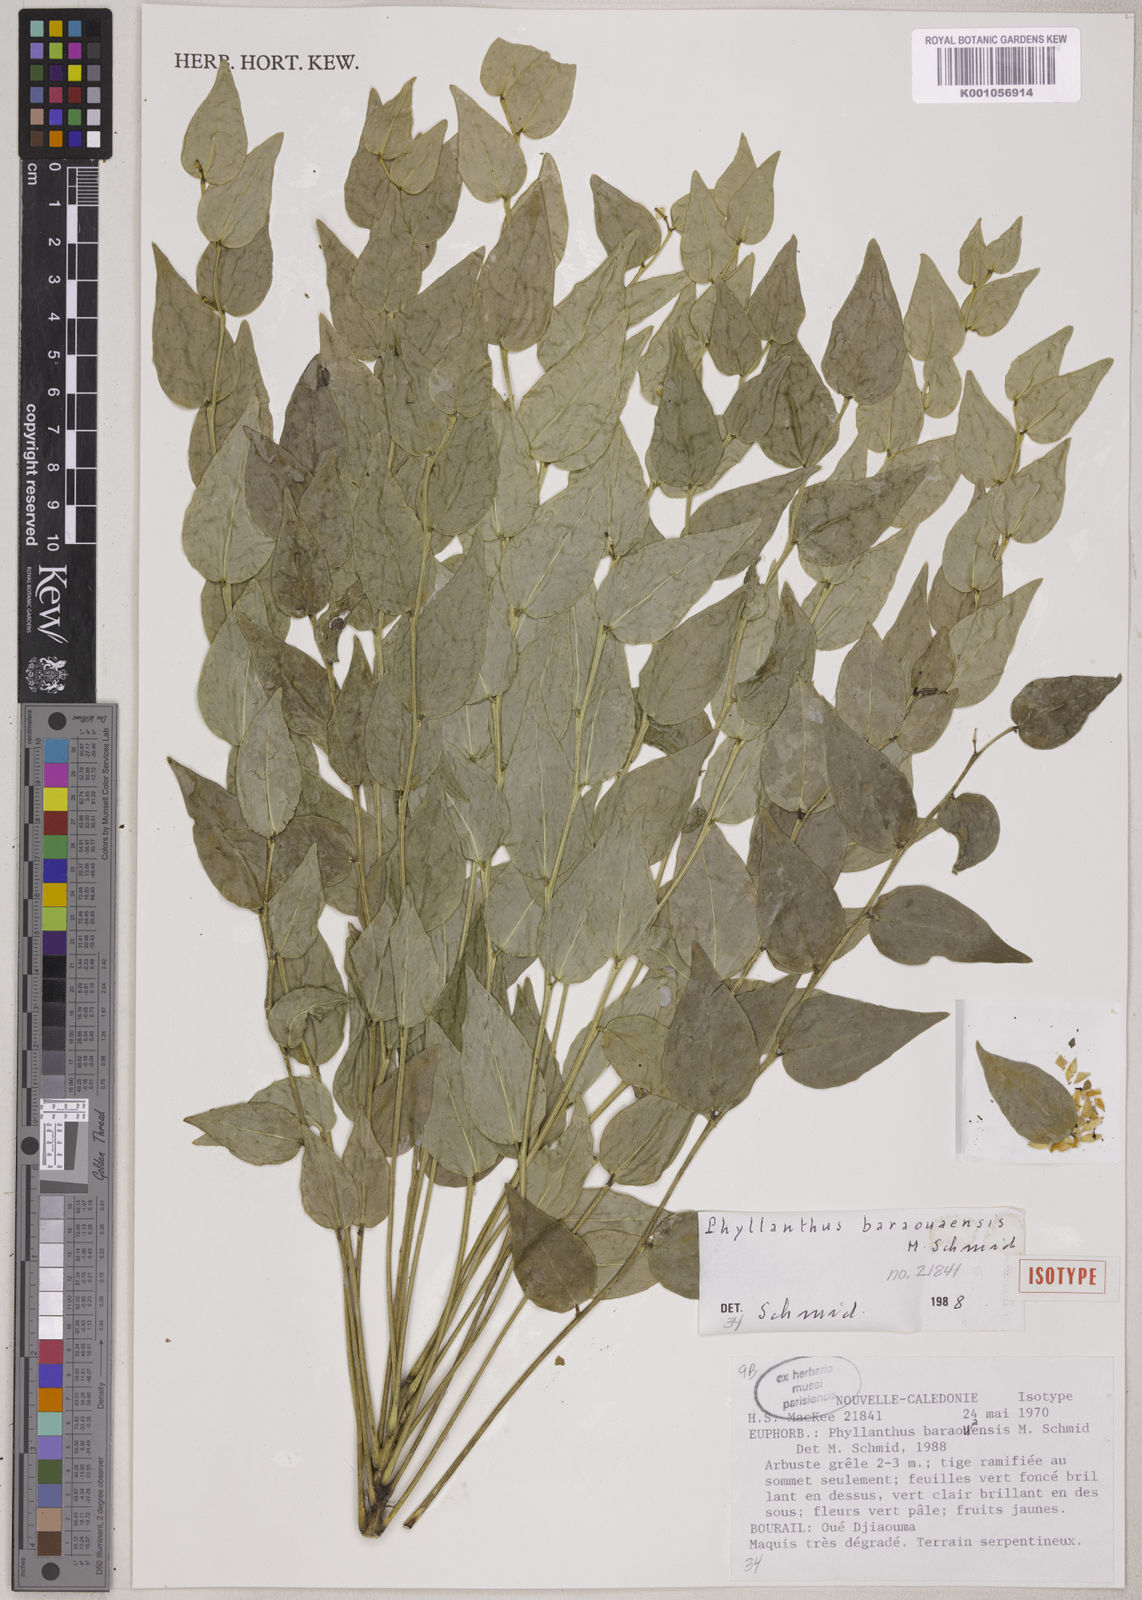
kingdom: Plantae
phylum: Tracheophyta
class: Magnoliopsida
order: Malpighiales
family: Phyllanthaceae
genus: Phyllanthus
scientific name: Phyllanthus baraouaensis
